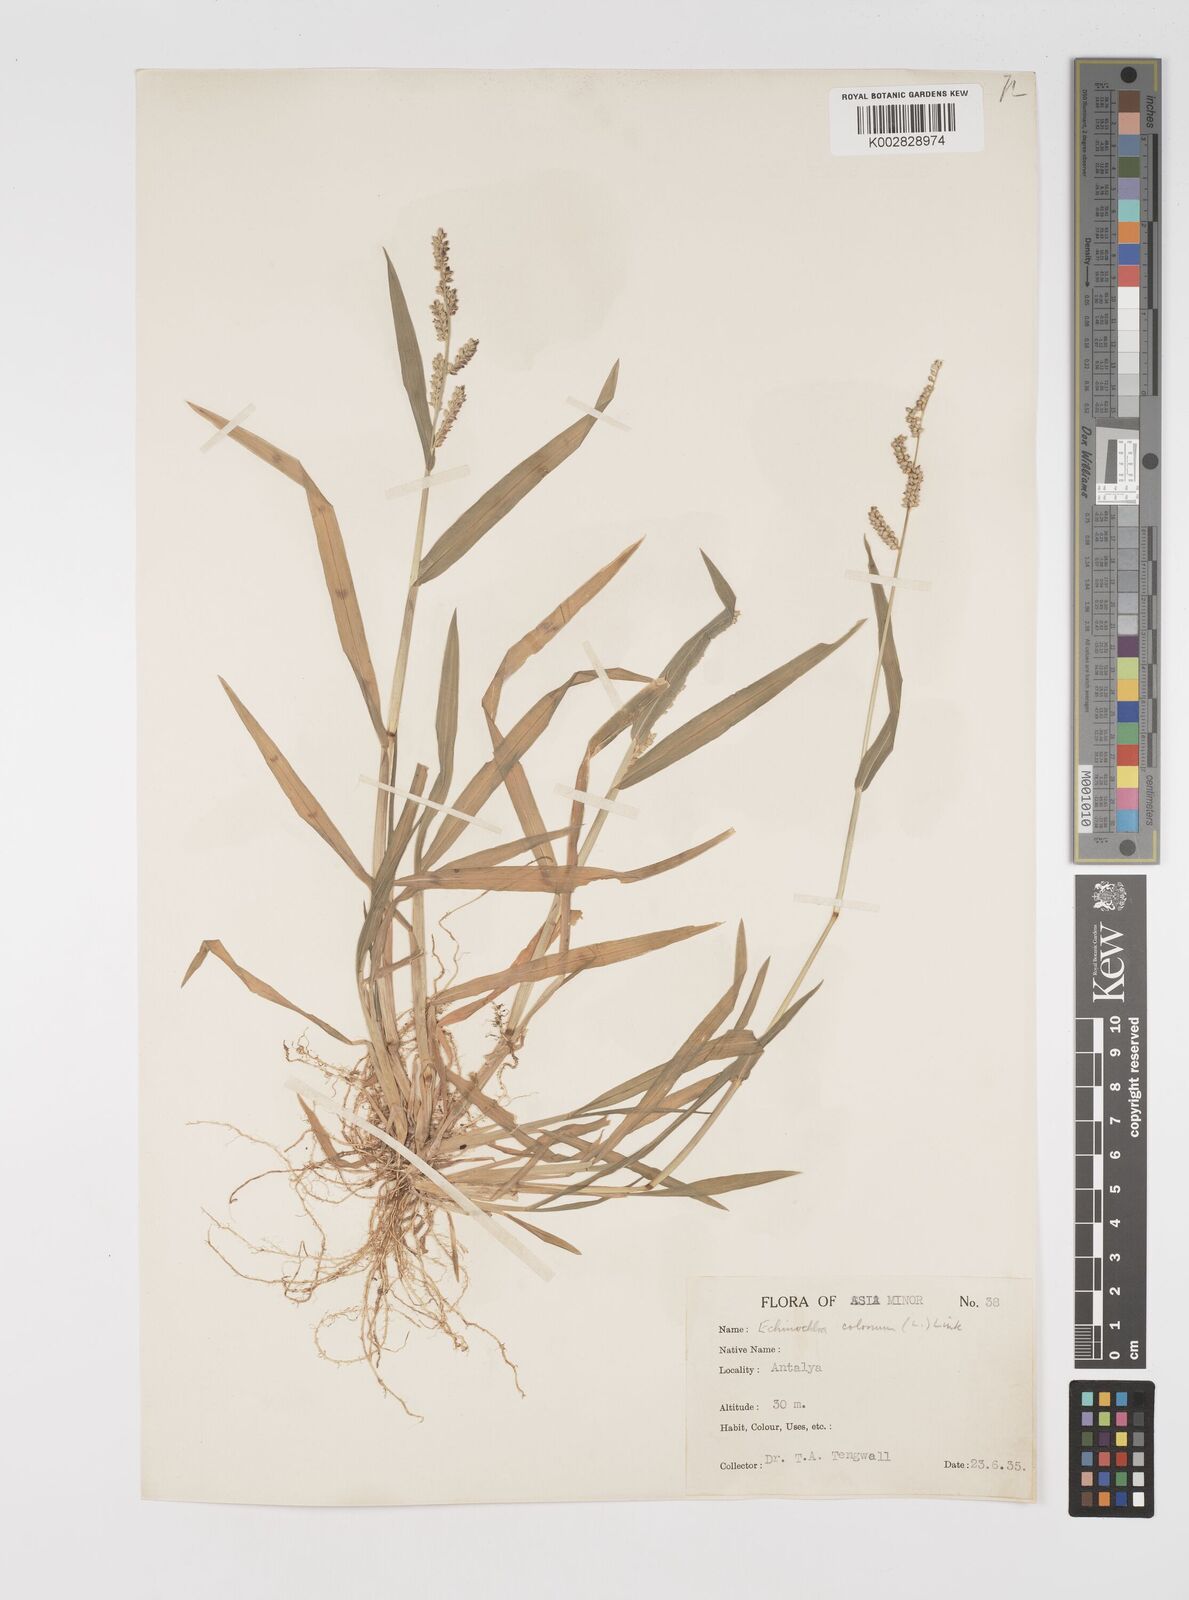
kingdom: Plantae
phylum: Tracheophyta
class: Liliopsida
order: Poales
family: Poaceae
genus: Echinochloa
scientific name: Echinochloa colonum
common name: Jungle rice
